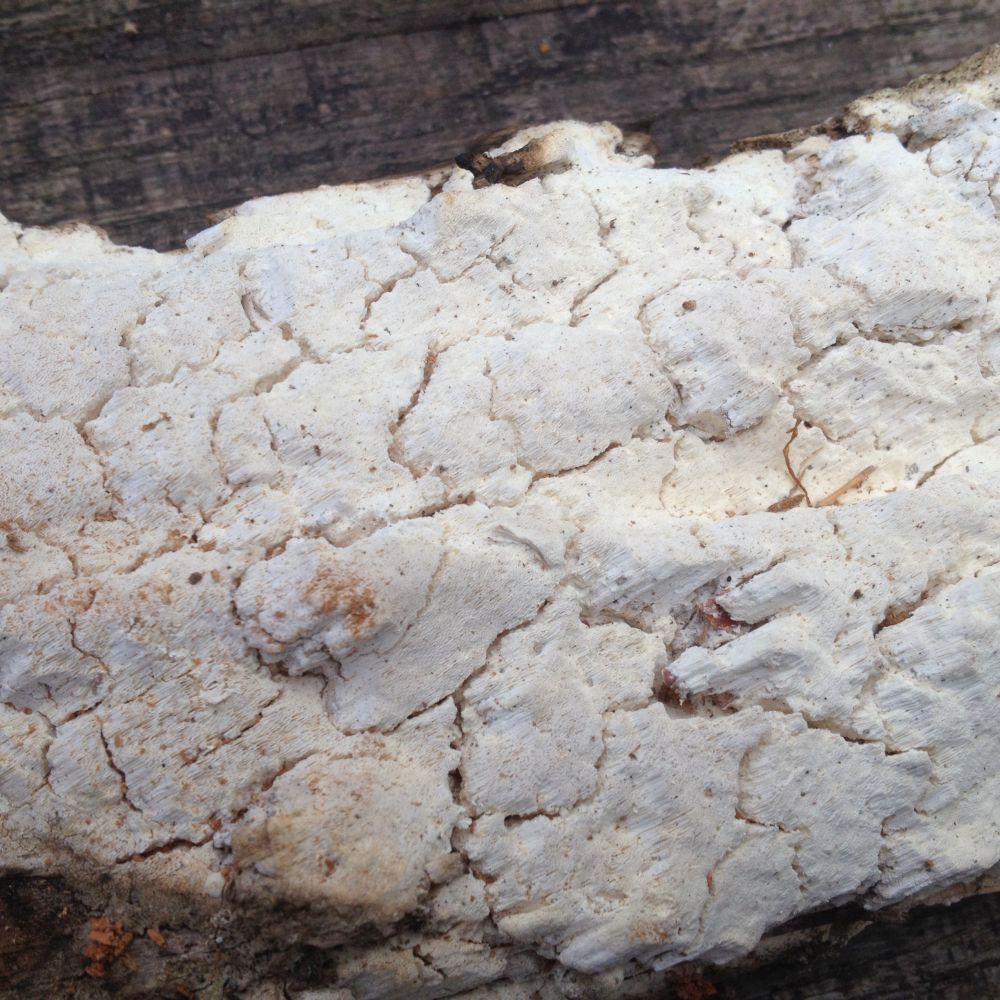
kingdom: Fungi
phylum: Basidiomycota
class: Agaricomycetes
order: Polyporales
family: Fomitopsidaceae
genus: Daedalea
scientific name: Daedalea xantha
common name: gul sejporesvamp
